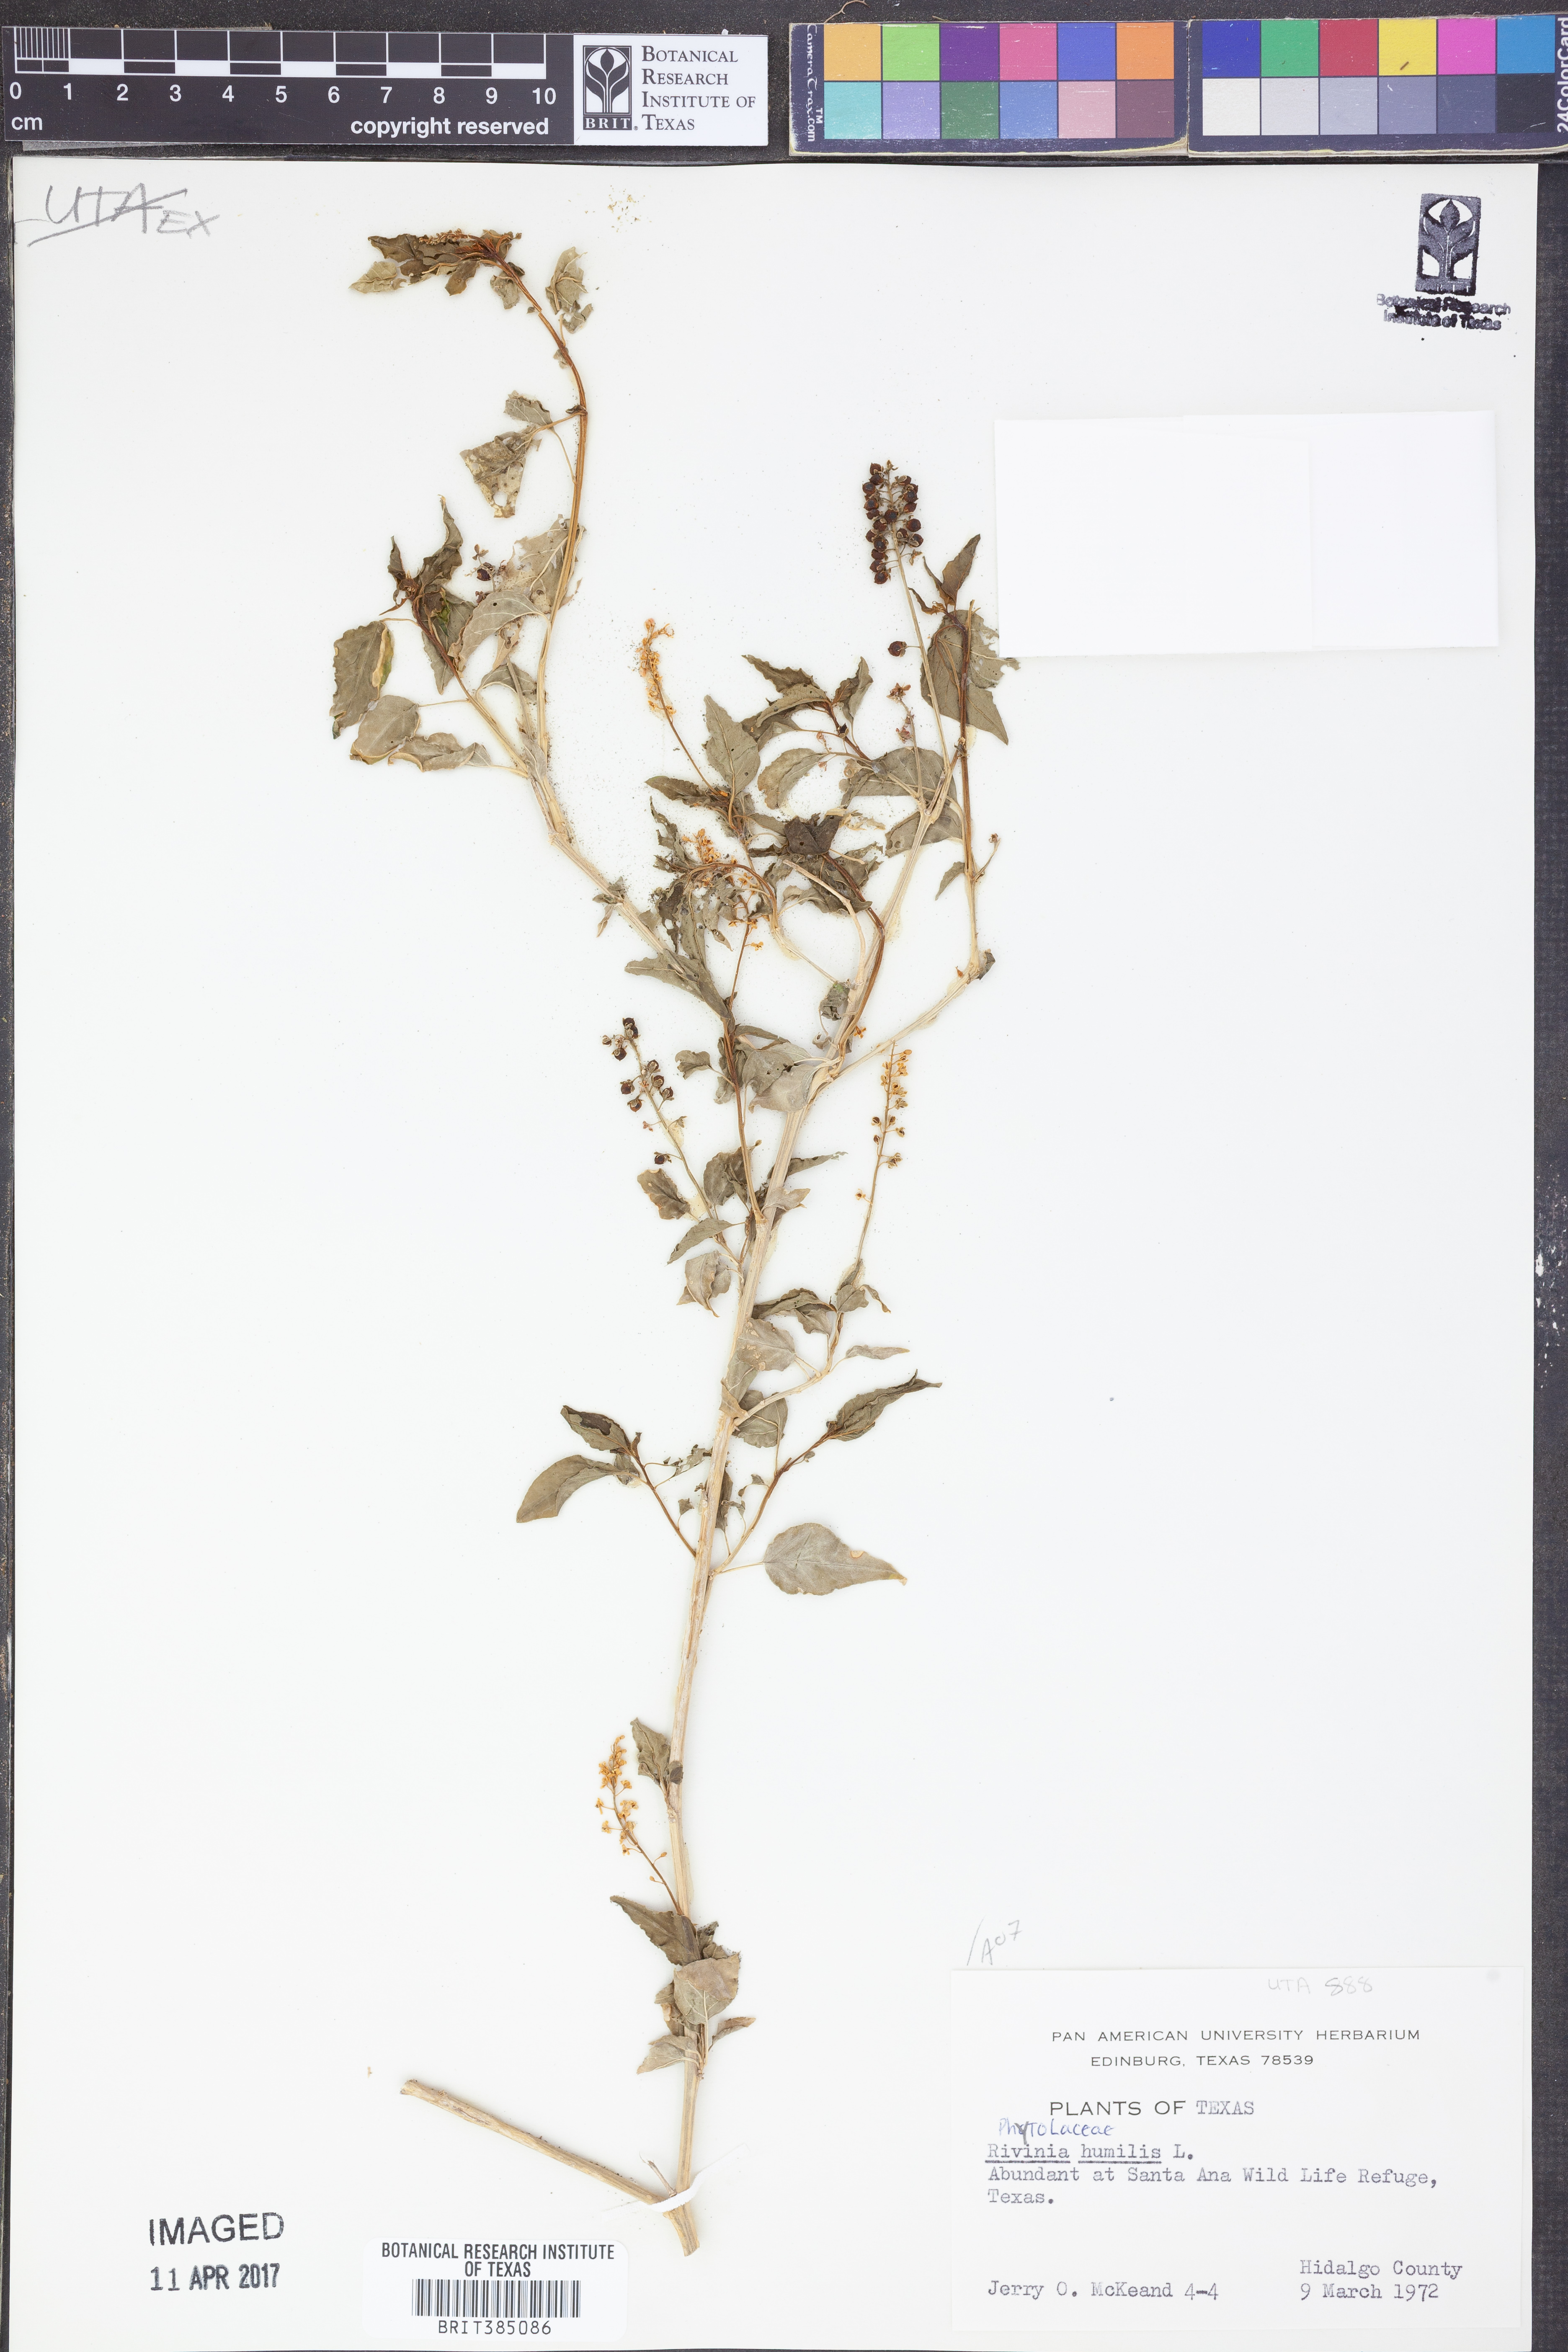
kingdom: Plantae
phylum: Tracheophyta
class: Magnoliopsida
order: Caryophyllales
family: Phytolaccaceae
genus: Rivina
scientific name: Rivina humilis
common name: Rougeplant
